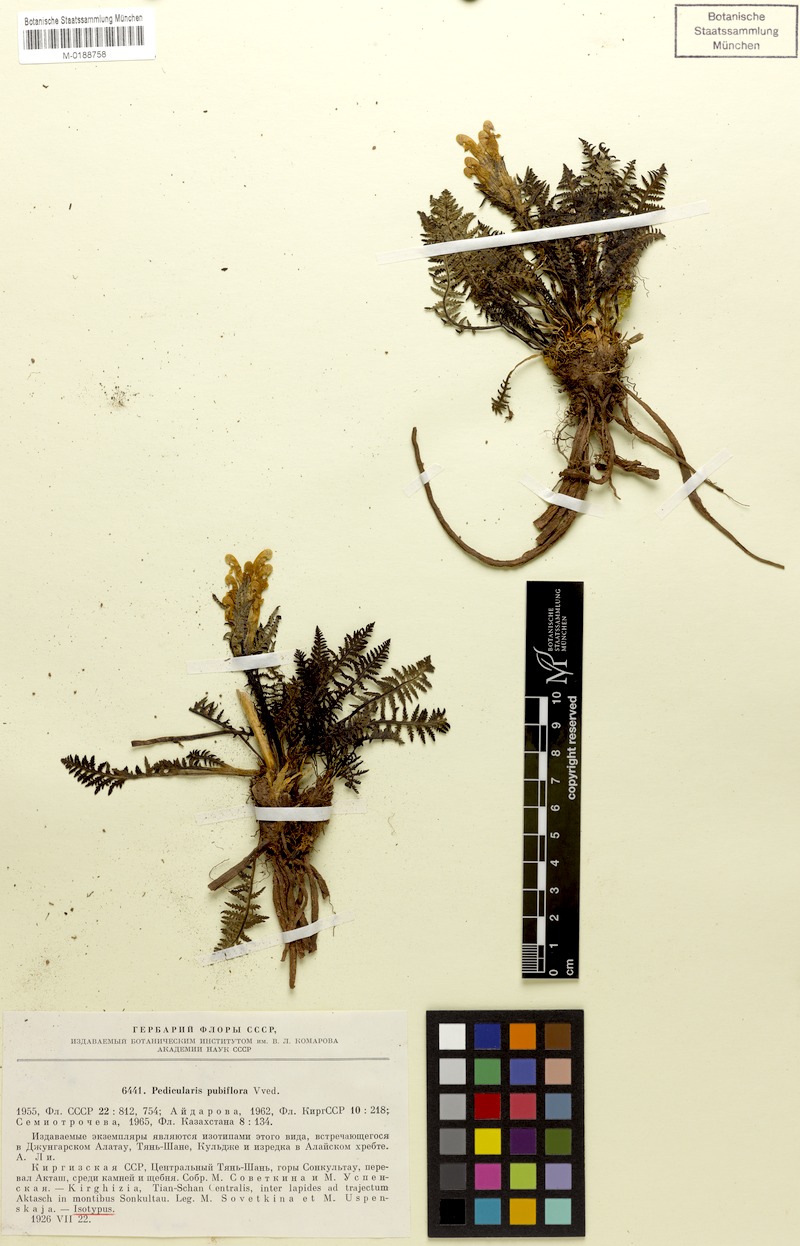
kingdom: Plantae
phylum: Tracheophyta
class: Magnoliopsida
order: Lamiales
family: Orobanchaceae
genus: Pedicularis
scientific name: Pedicularis pubiflora
